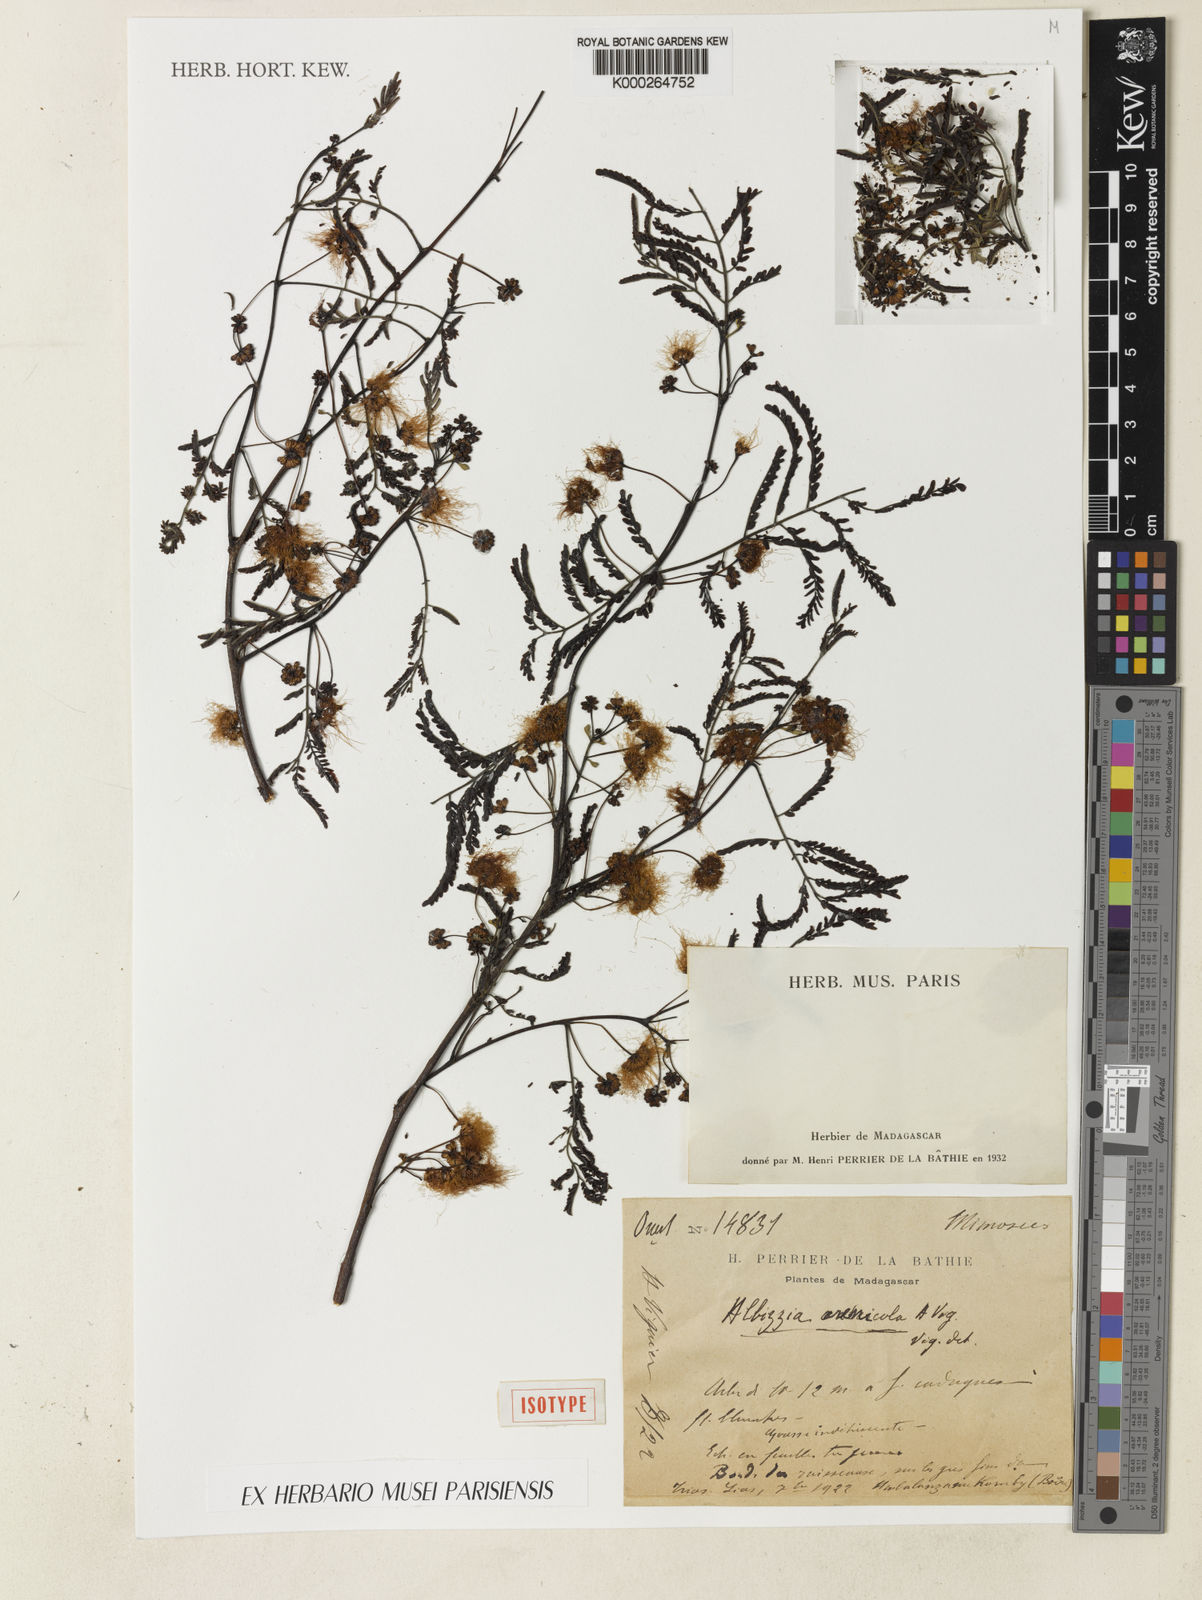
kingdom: Plantae
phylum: Tracheophyta
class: Magnoliopsida
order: Fabales
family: Fabaceae
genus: Albizia
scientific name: Albizia arenicola
